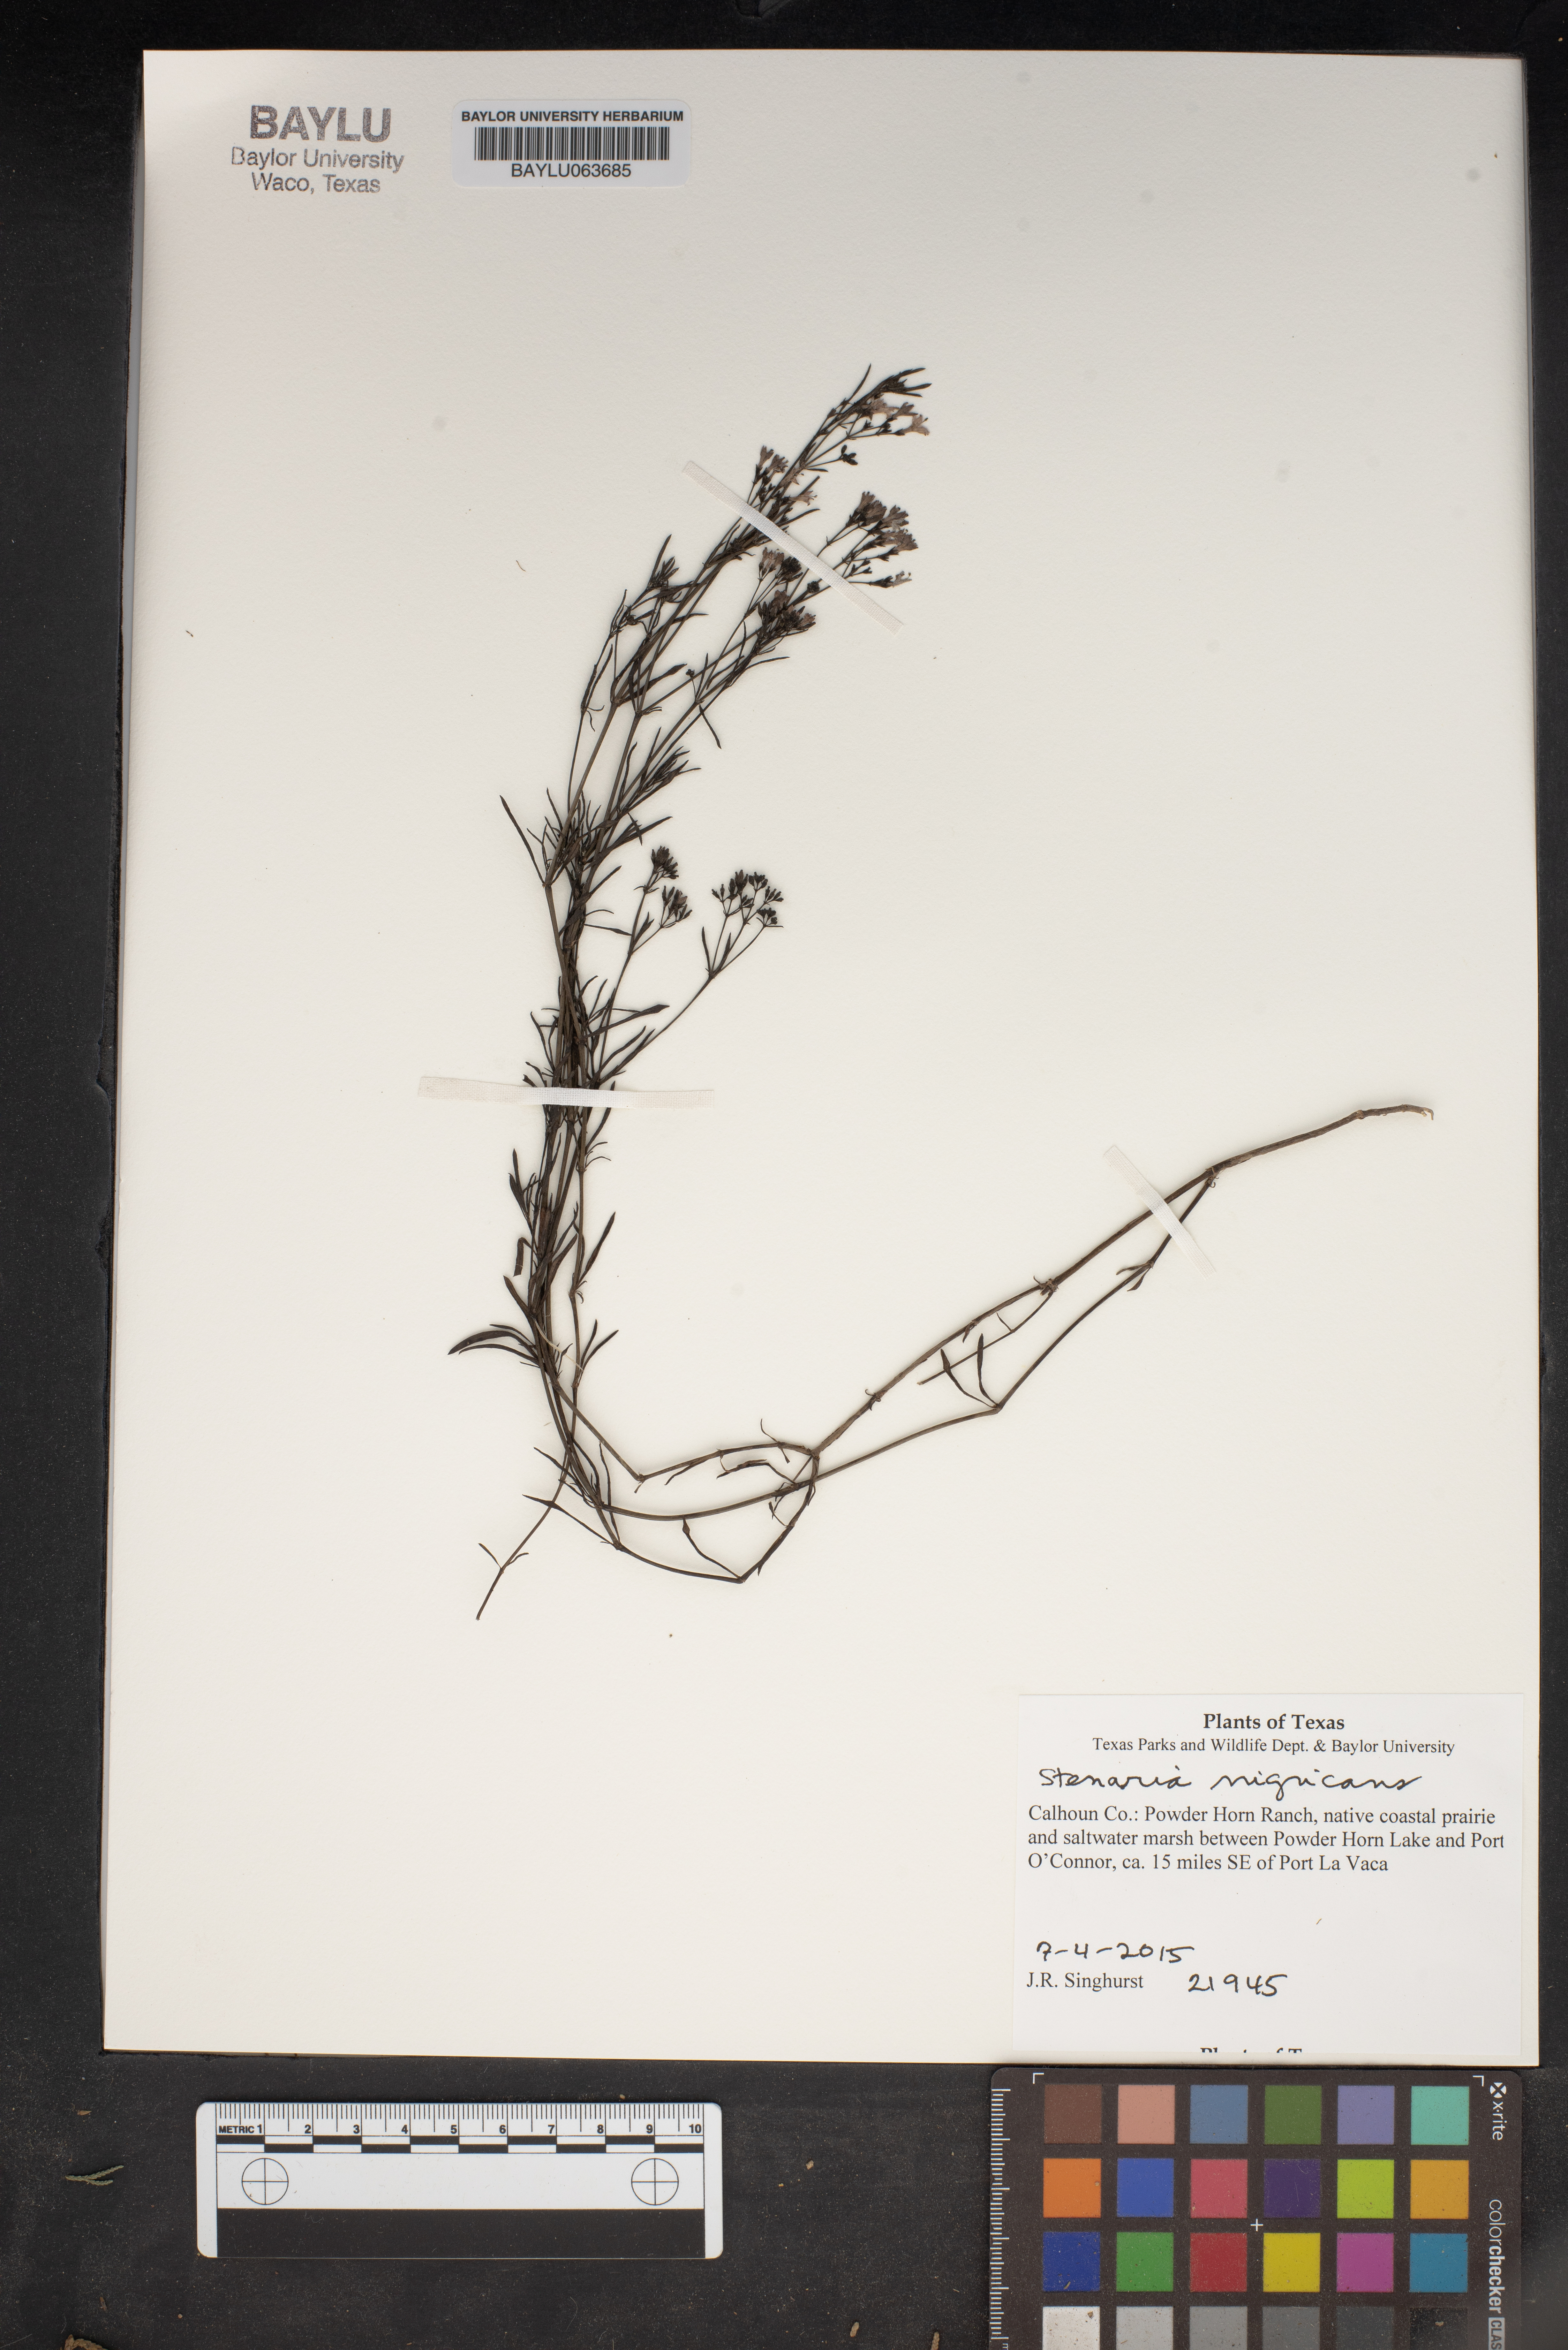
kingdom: Plantae
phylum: Tracheophyta
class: Magnoliopsida
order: Gentianales
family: Rubiaceae
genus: Stenaria
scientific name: Stenaria nigricans
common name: Diamondflowers
